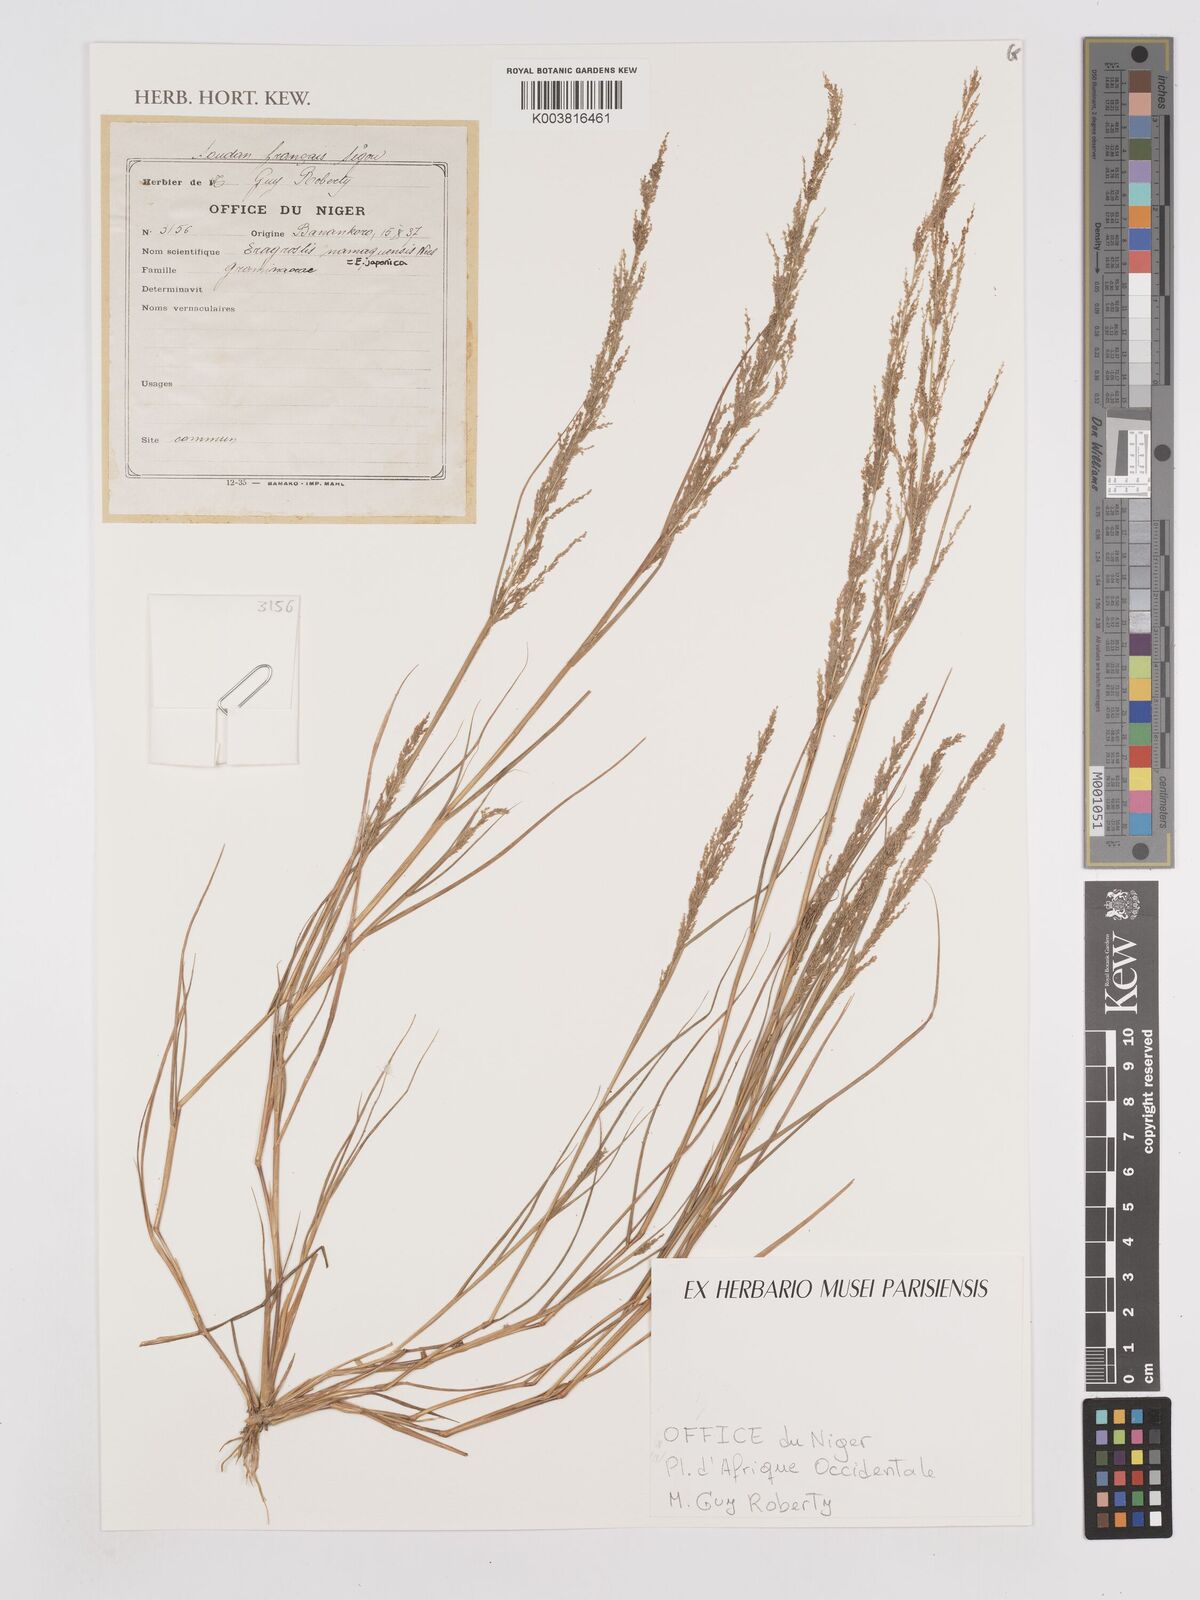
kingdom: Plantae
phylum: Tracheophyta
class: Liliopsida
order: Poales
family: Poaceae
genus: Eragrostis
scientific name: Eragrostis japonica
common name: Pond lovegrass
